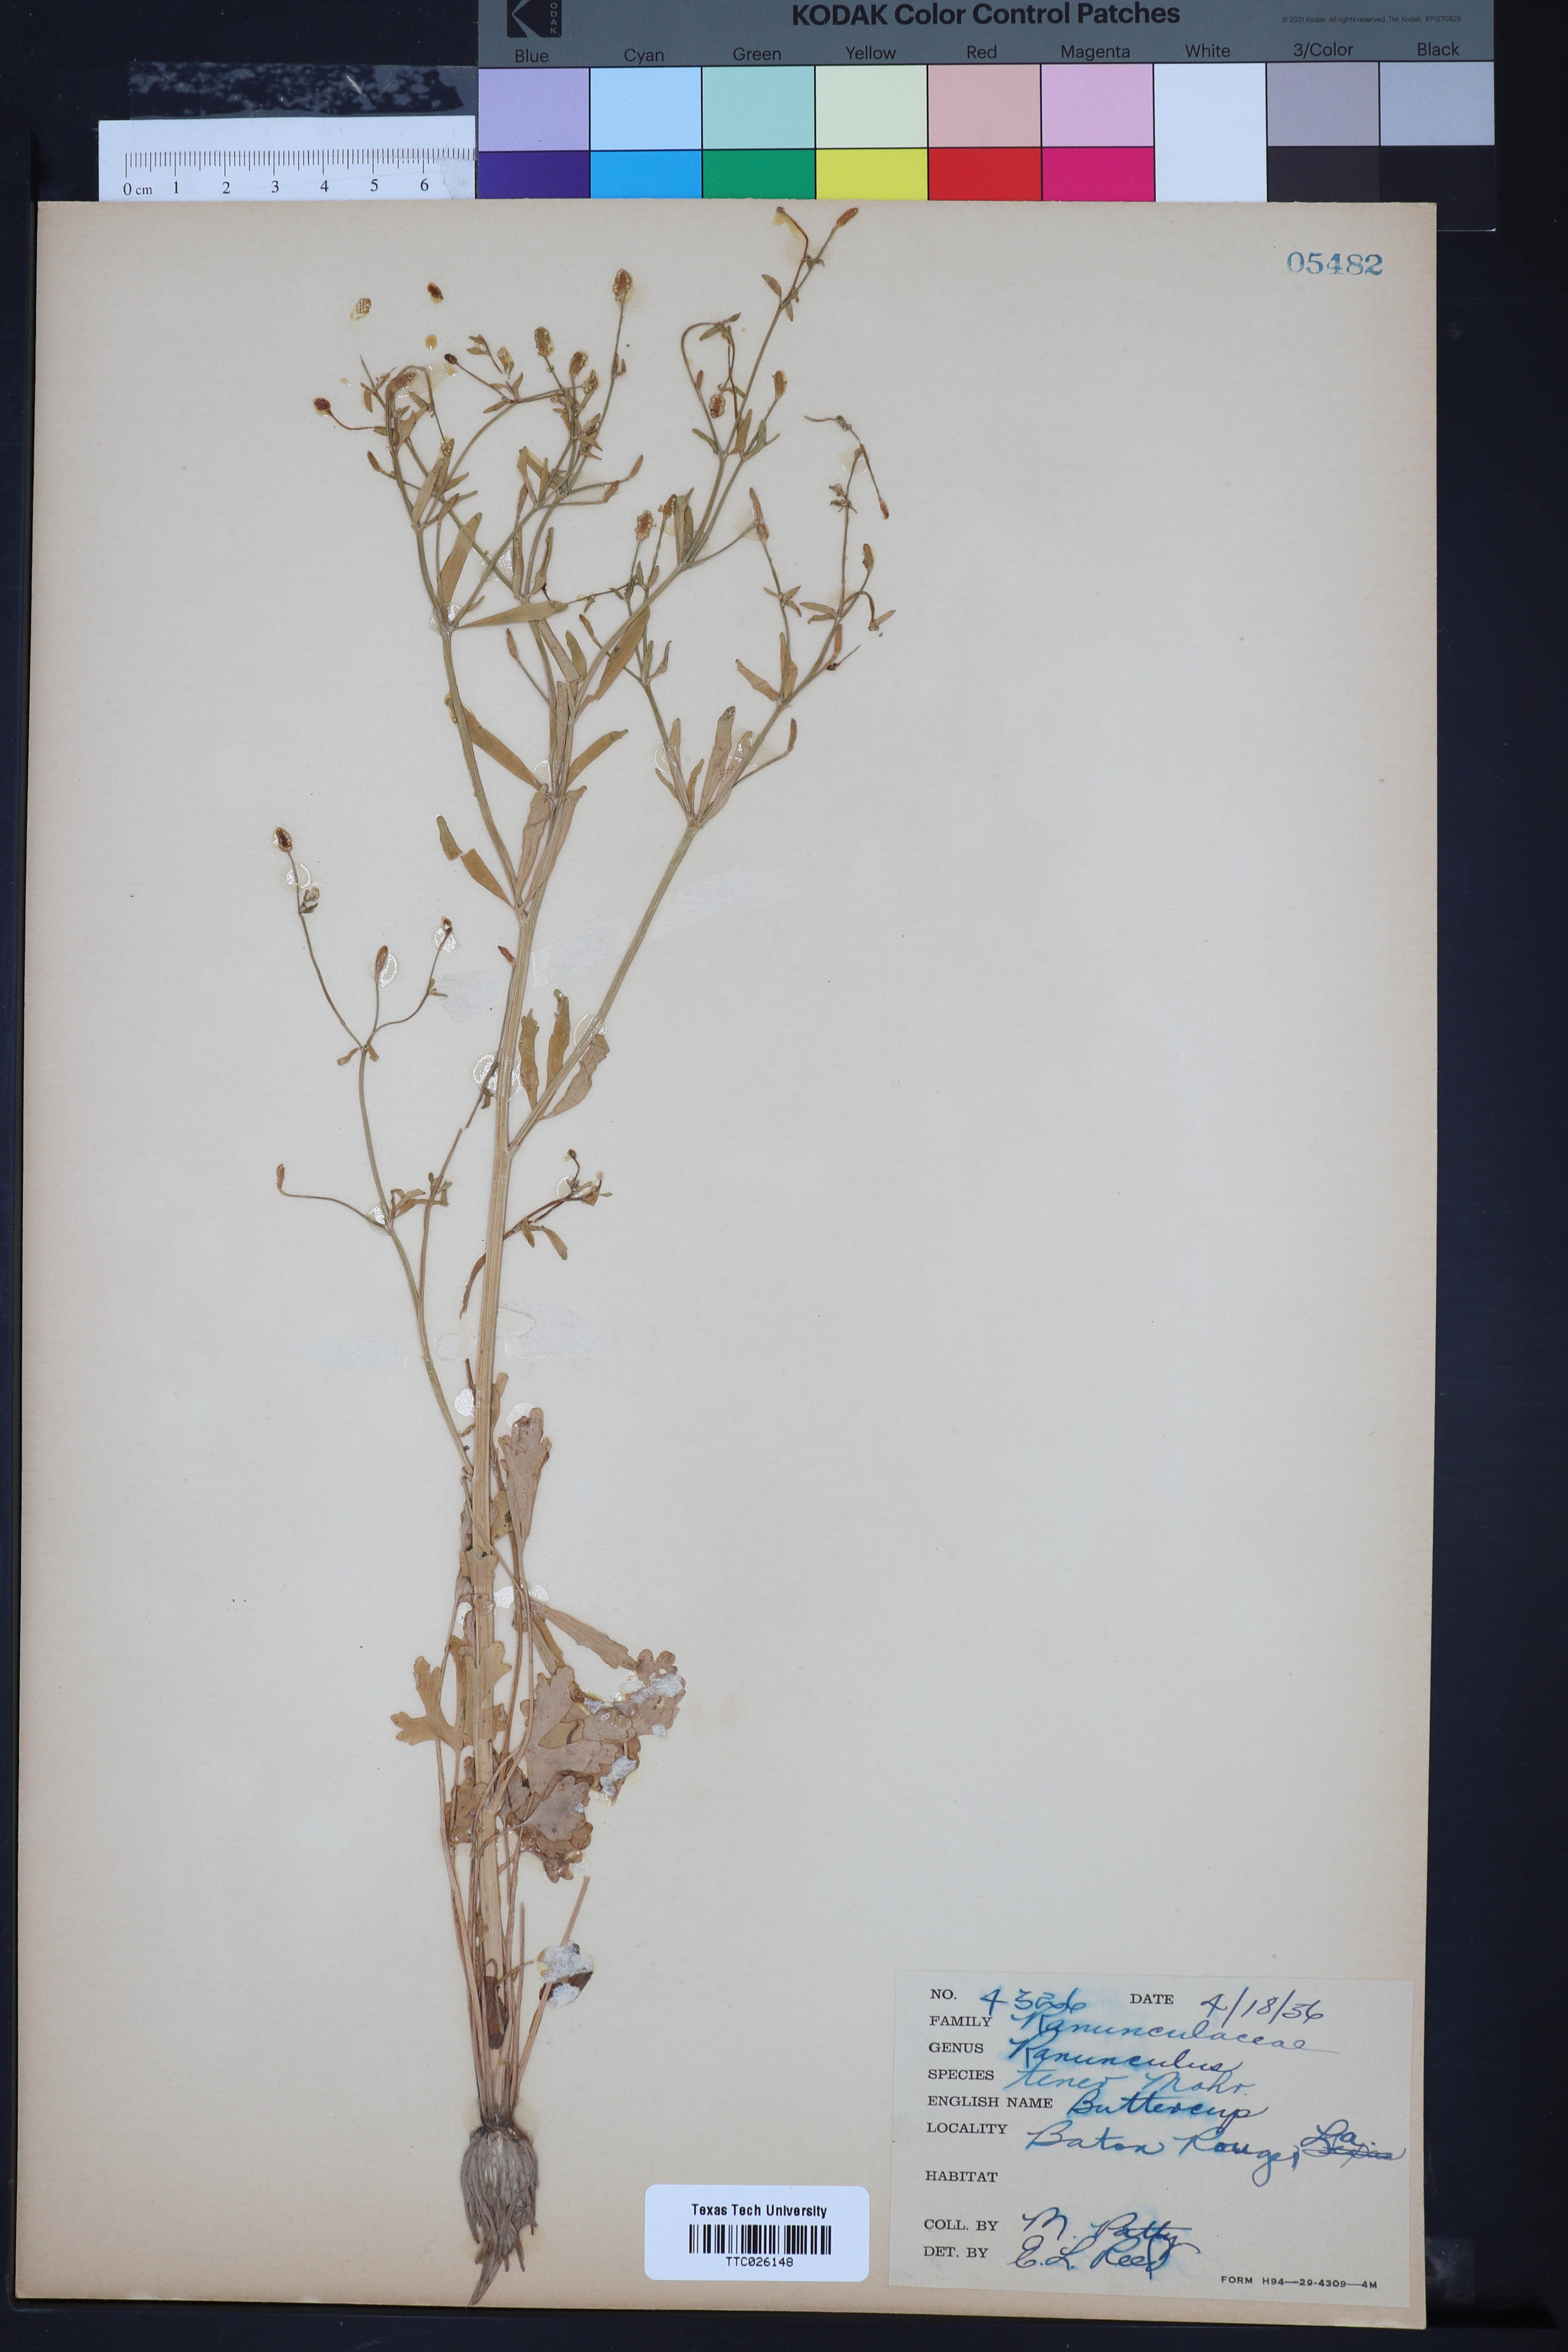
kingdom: Plantae
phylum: Tracheophyta
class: Magnoliopsida
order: Ranunculales
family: Ranunculaceae
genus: Ranunculus
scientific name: Ranunculus pusillus
